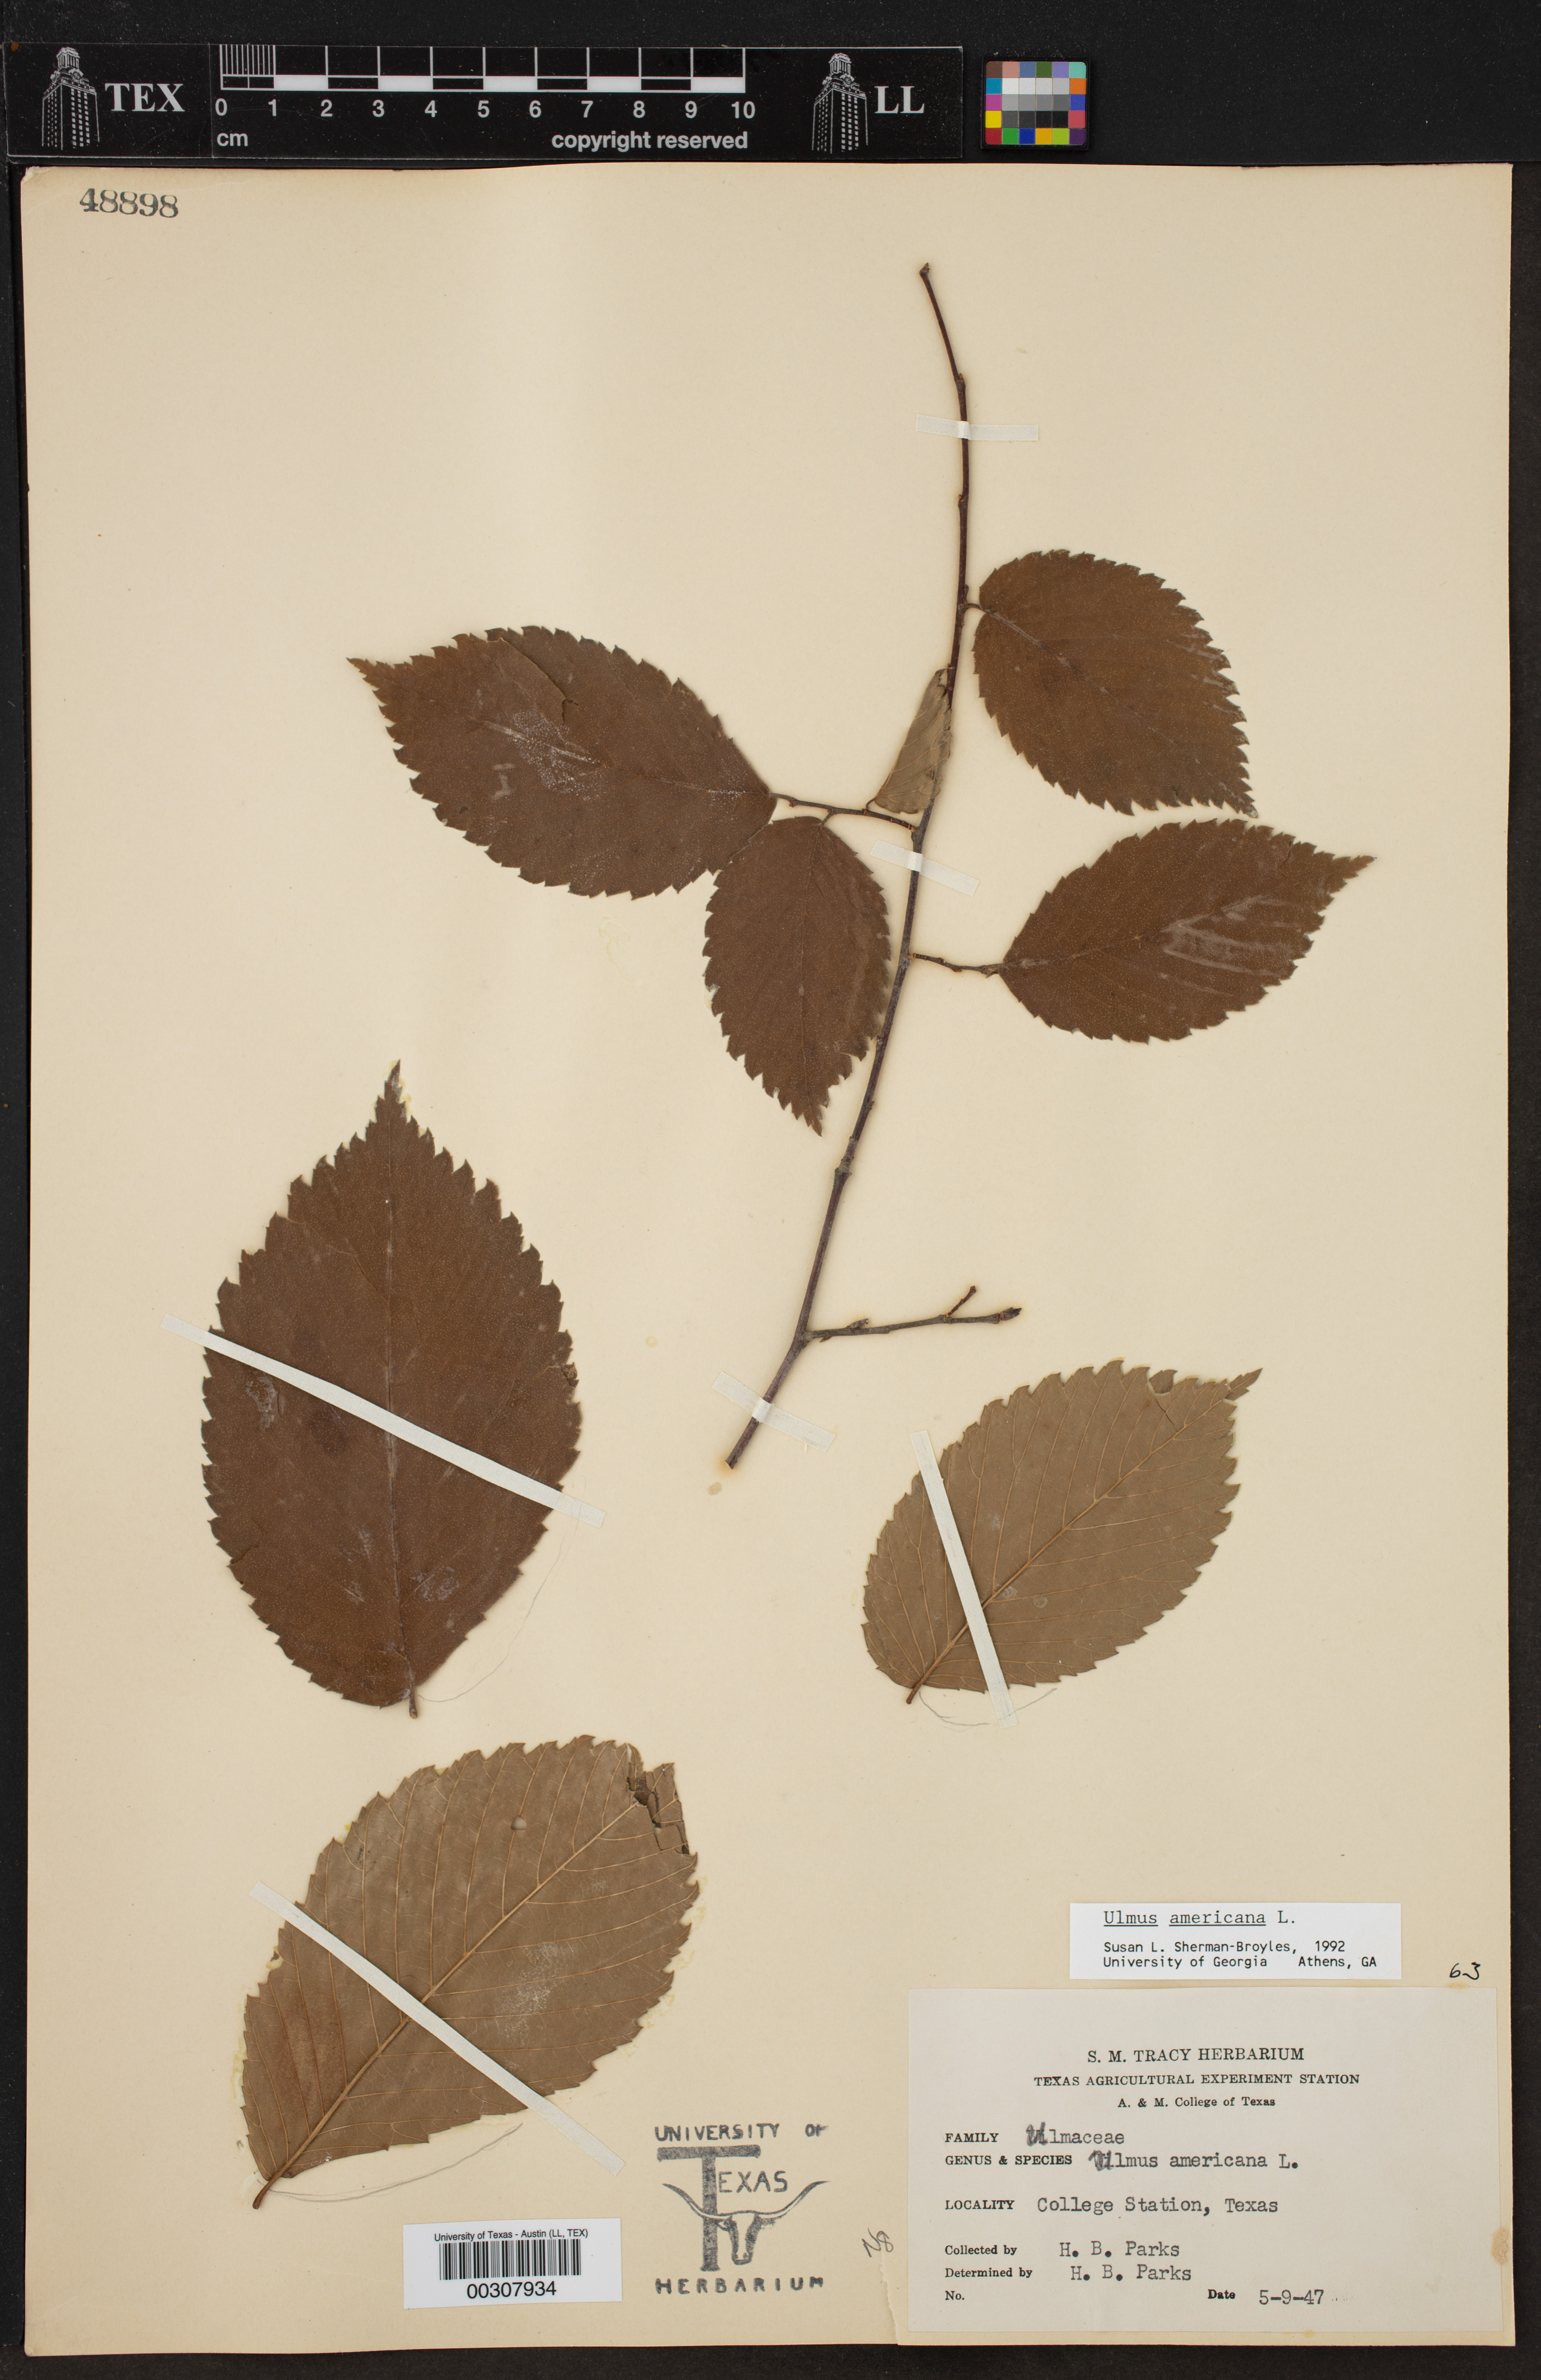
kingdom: Plantae
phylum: Tracheophyta
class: Magnoliopsida
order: Rosales
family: Ulmaceae
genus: Ulmus
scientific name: Ulmus americana
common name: American elm
